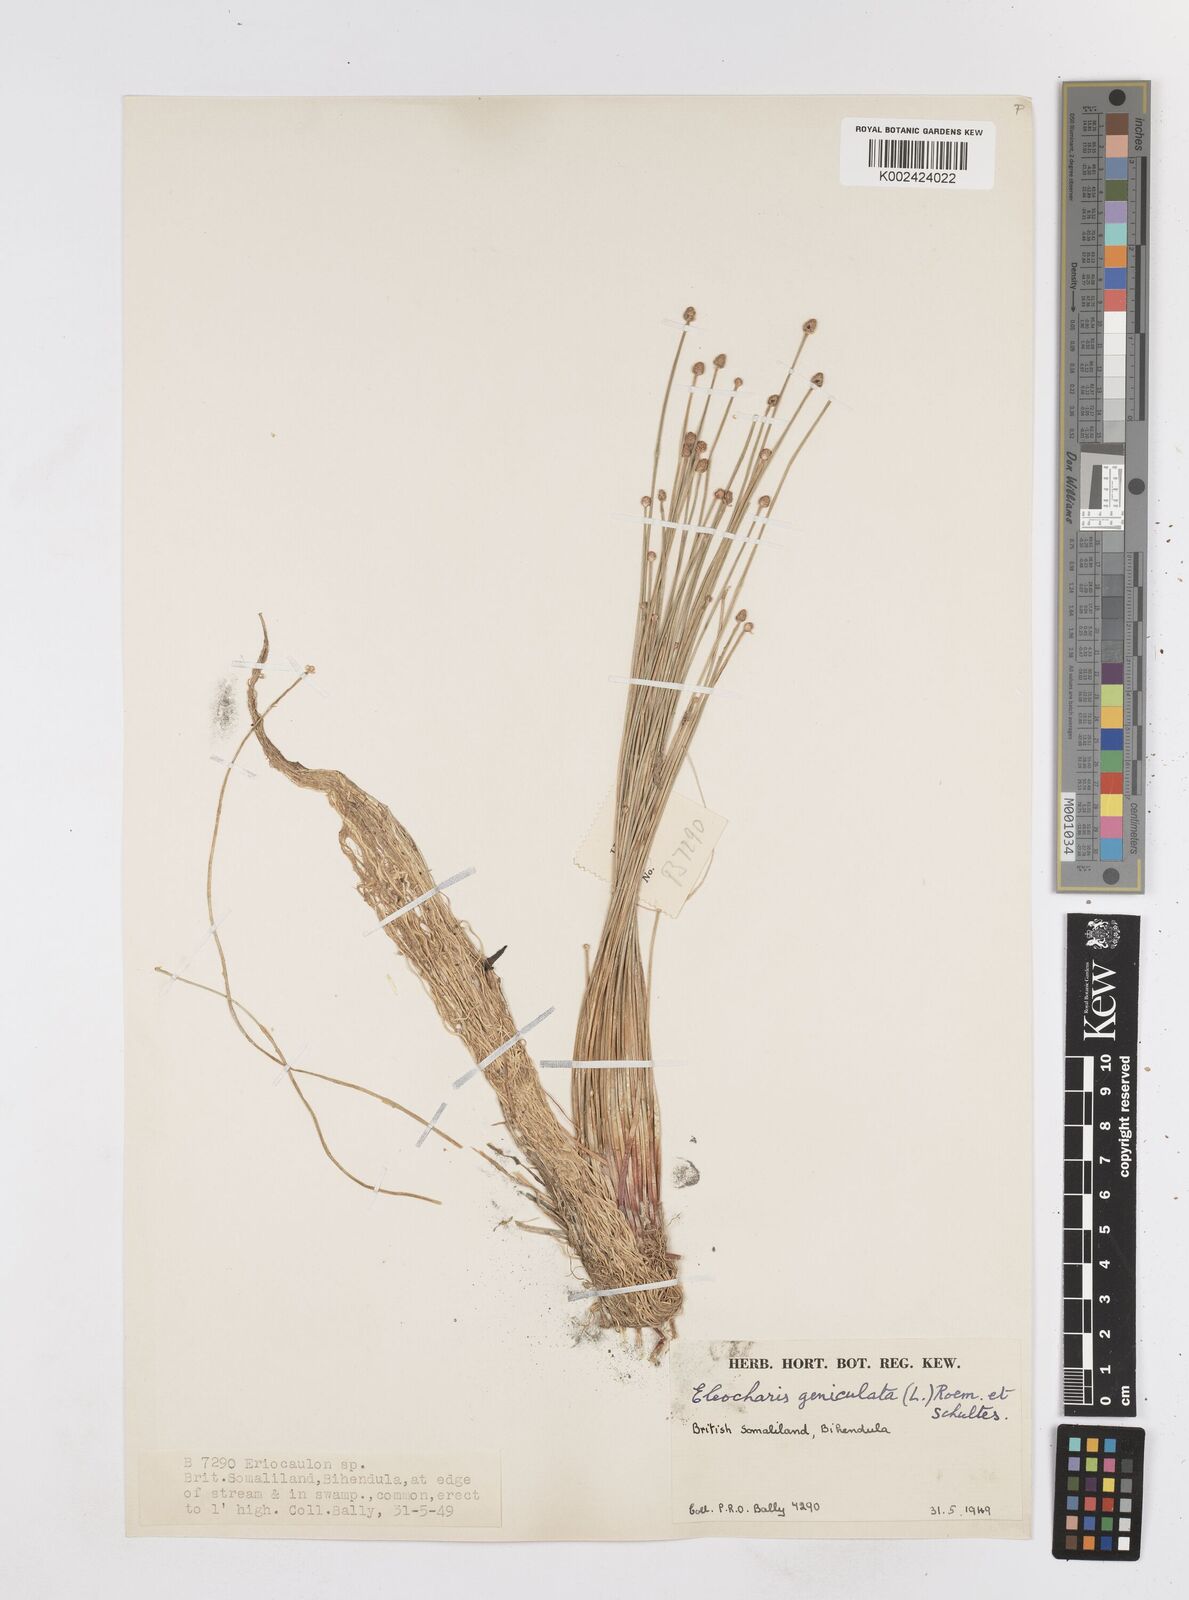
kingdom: Plantae
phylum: Tracheophyta
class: Liliopsida
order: Poales
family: Cyperaceae
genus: Eleocharis
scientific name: Eleocharis geniculata
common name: Canada spikesedge
